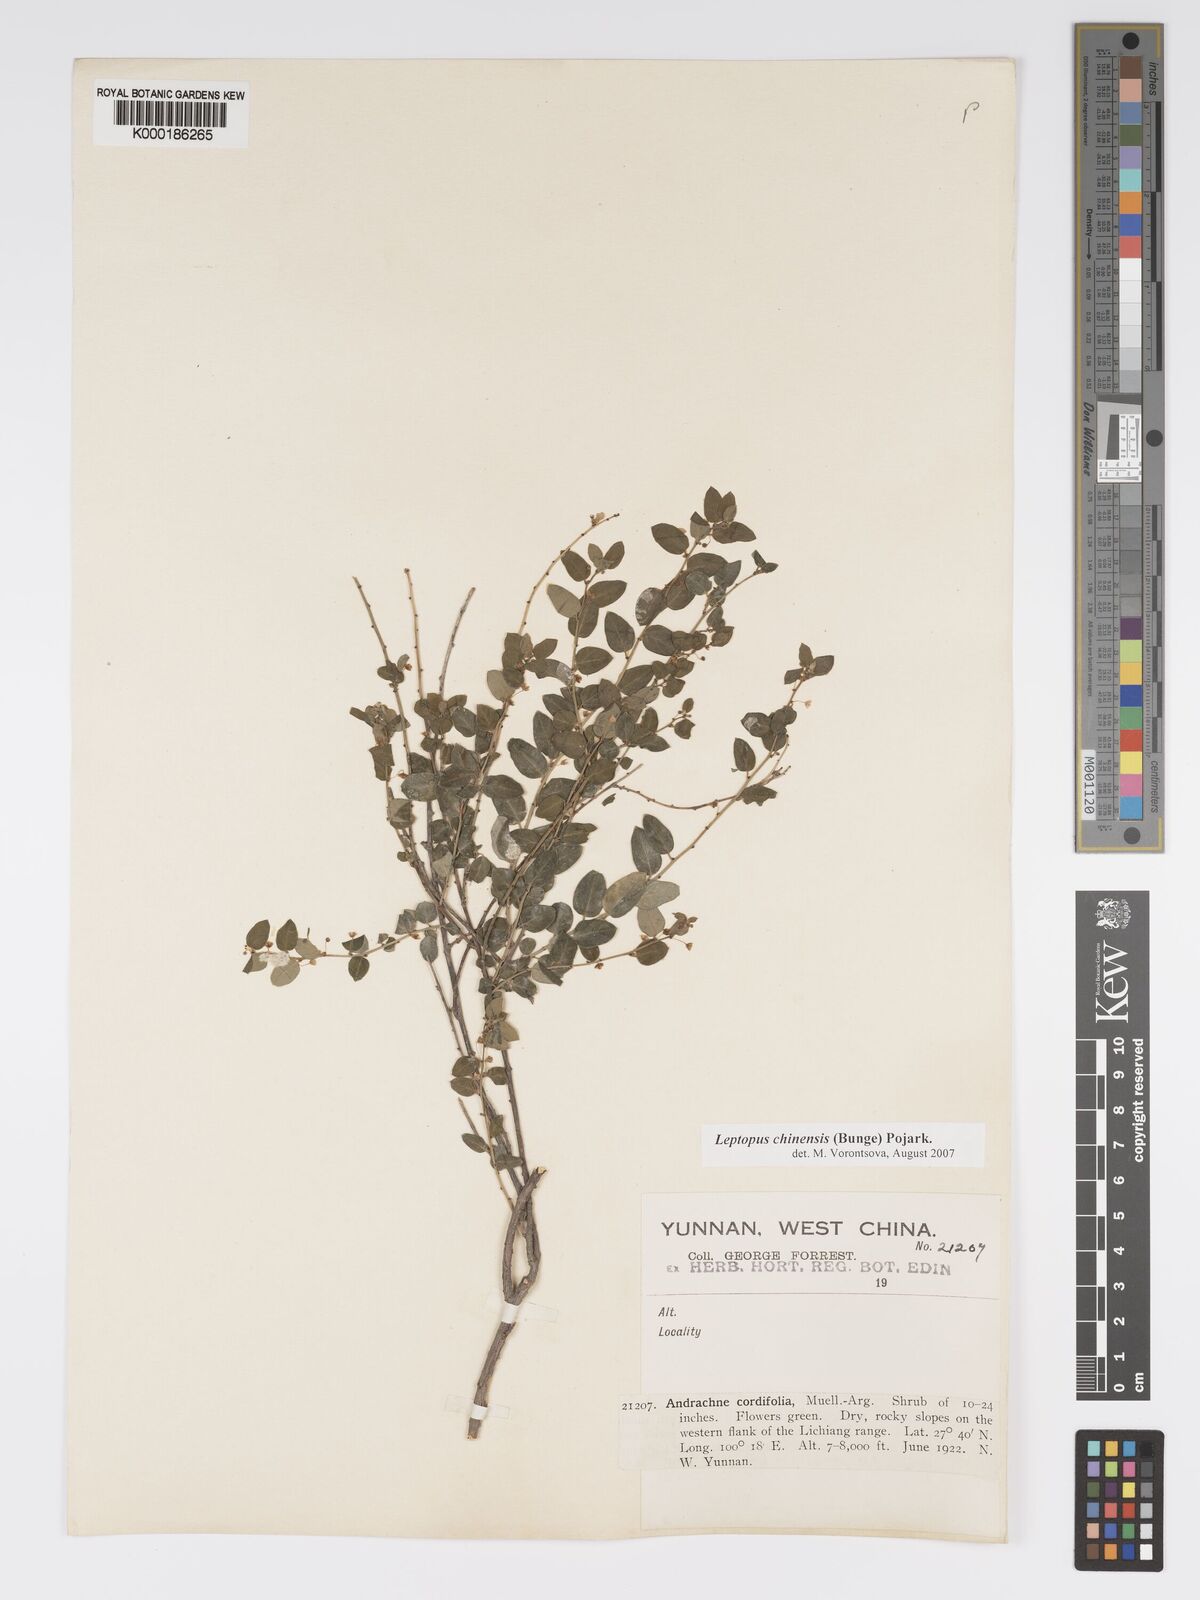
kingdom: Plantae
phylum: Tracheophyta
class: Magnoliopsida
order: Malpighiales
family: Phyllanthaceae
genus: Leptopus
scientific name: Leptopus cordifolius
